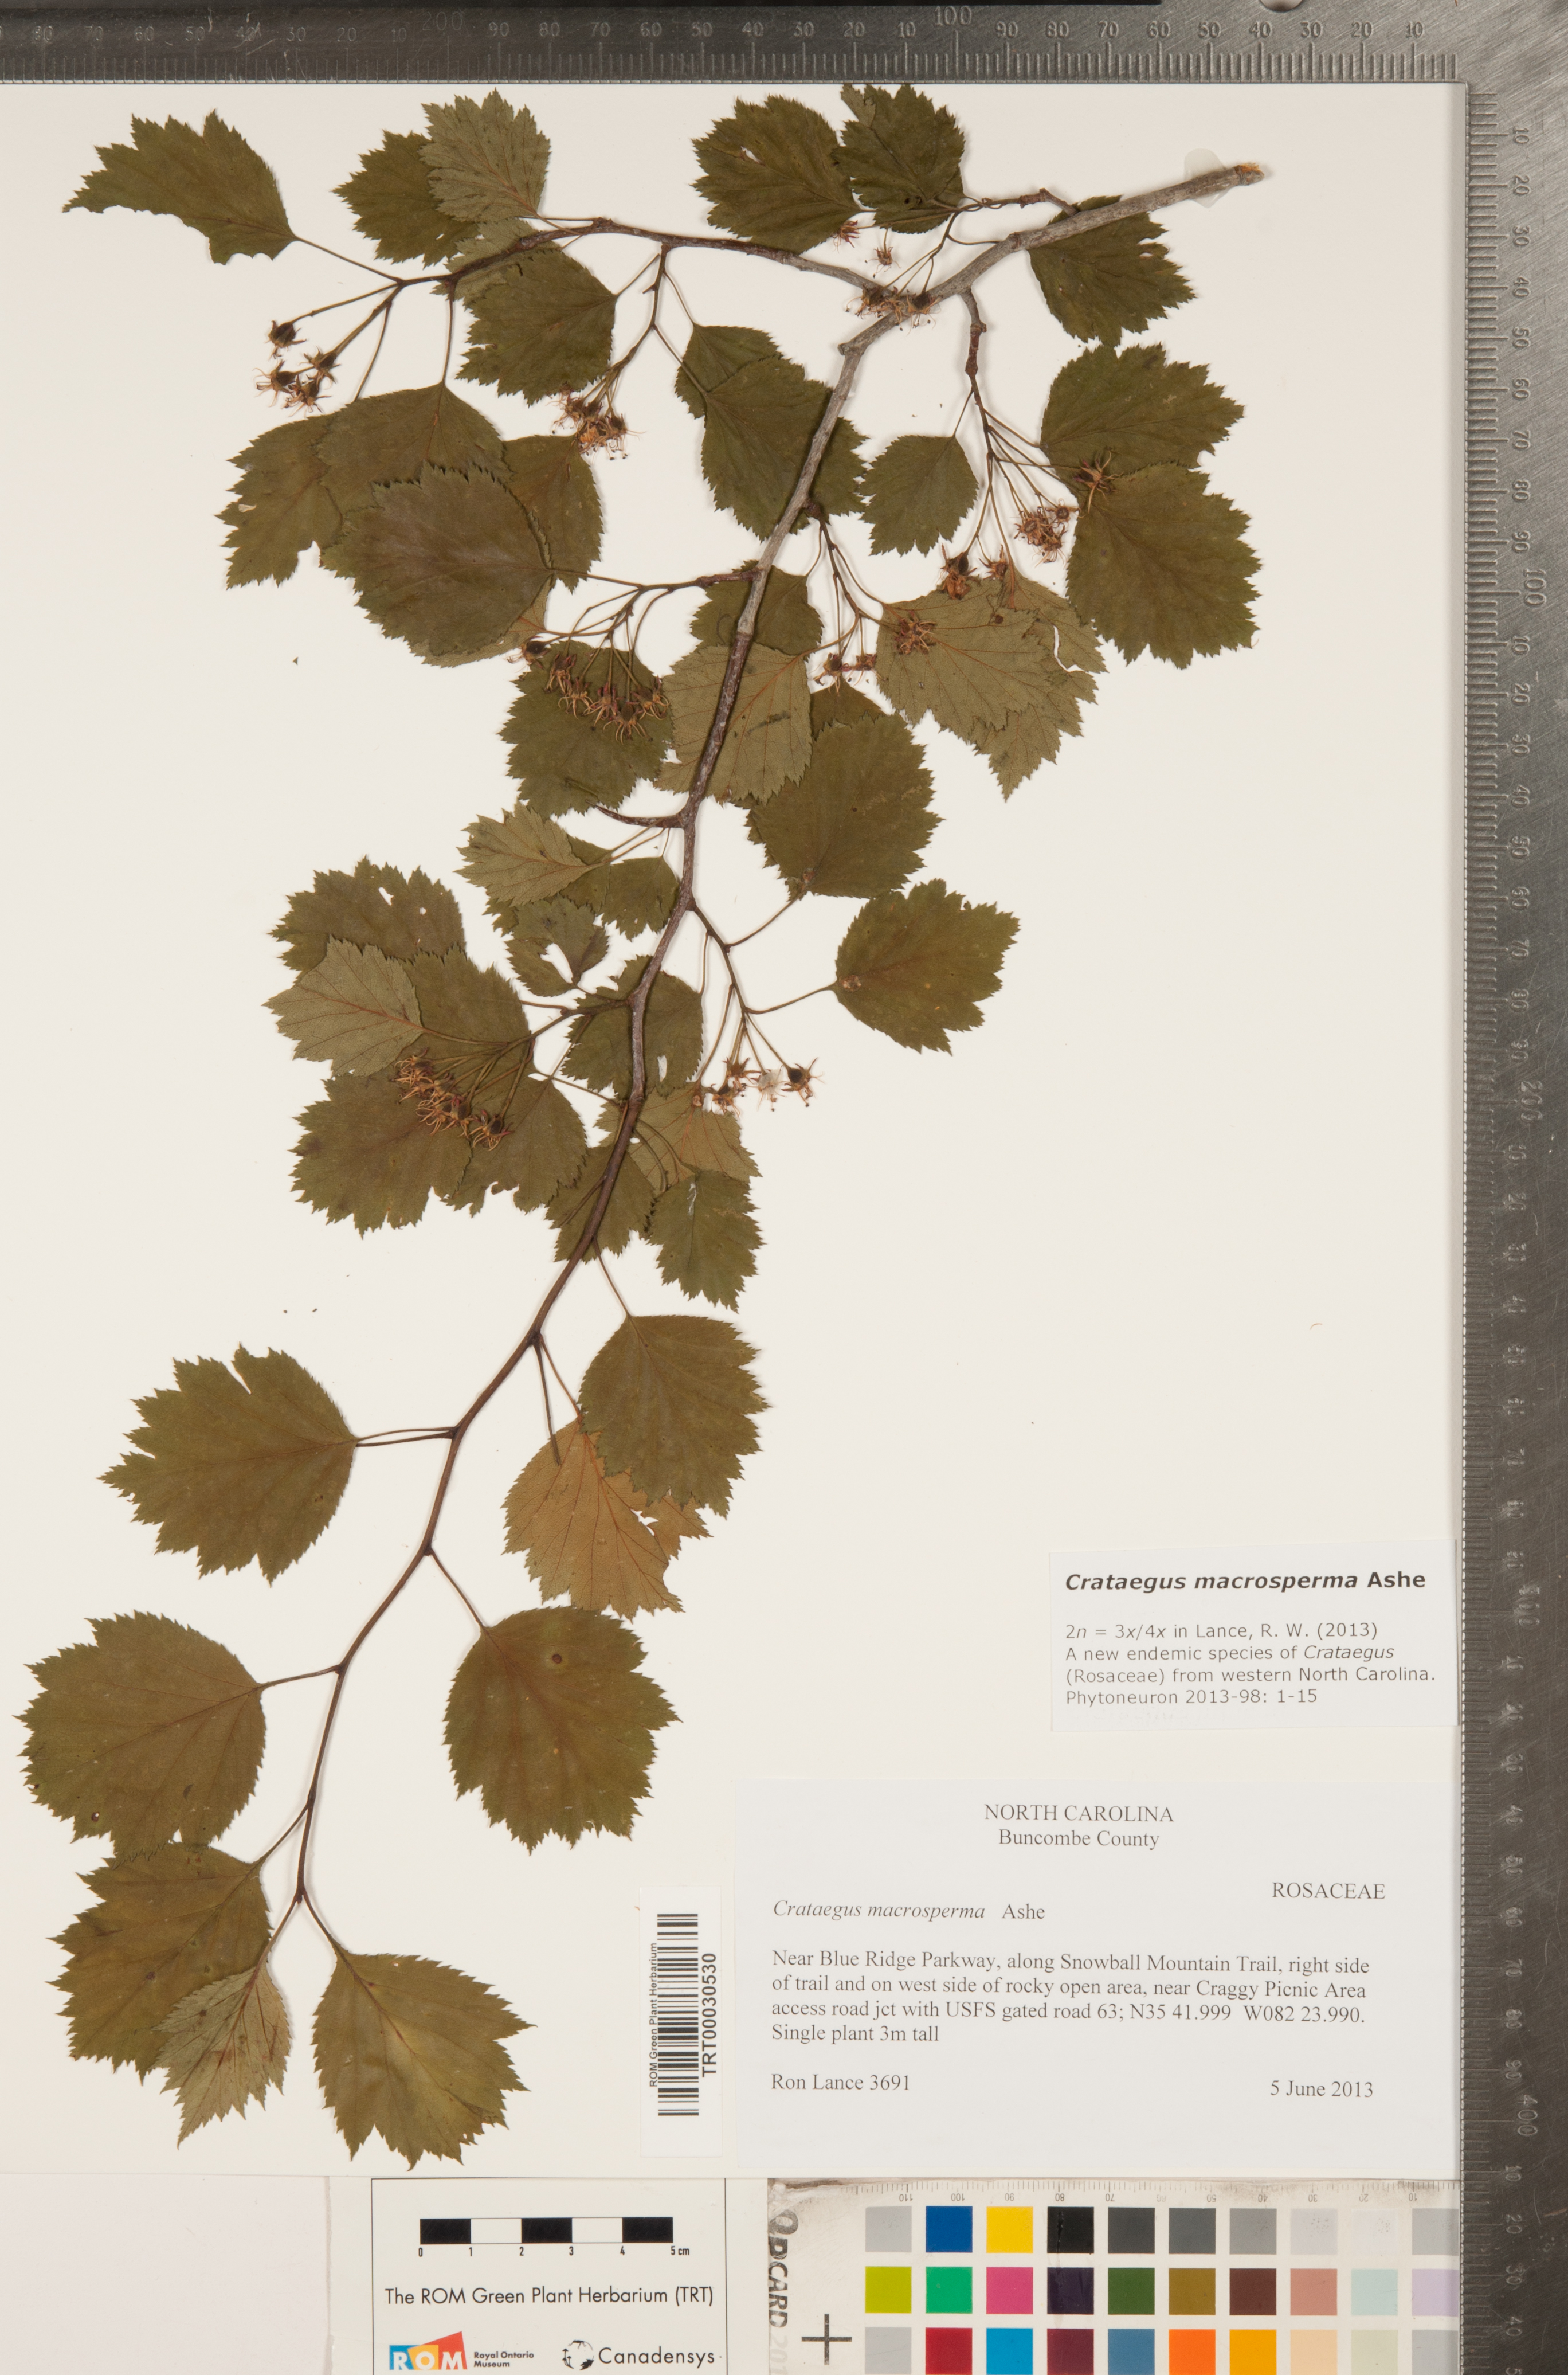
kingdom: Plantae
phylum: Tracheophyta
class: Magnoliopsida
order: Rosales
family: Rosaceae
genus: Crataegus
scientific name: Crataegus macrosperma
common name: Variable hawthorn
